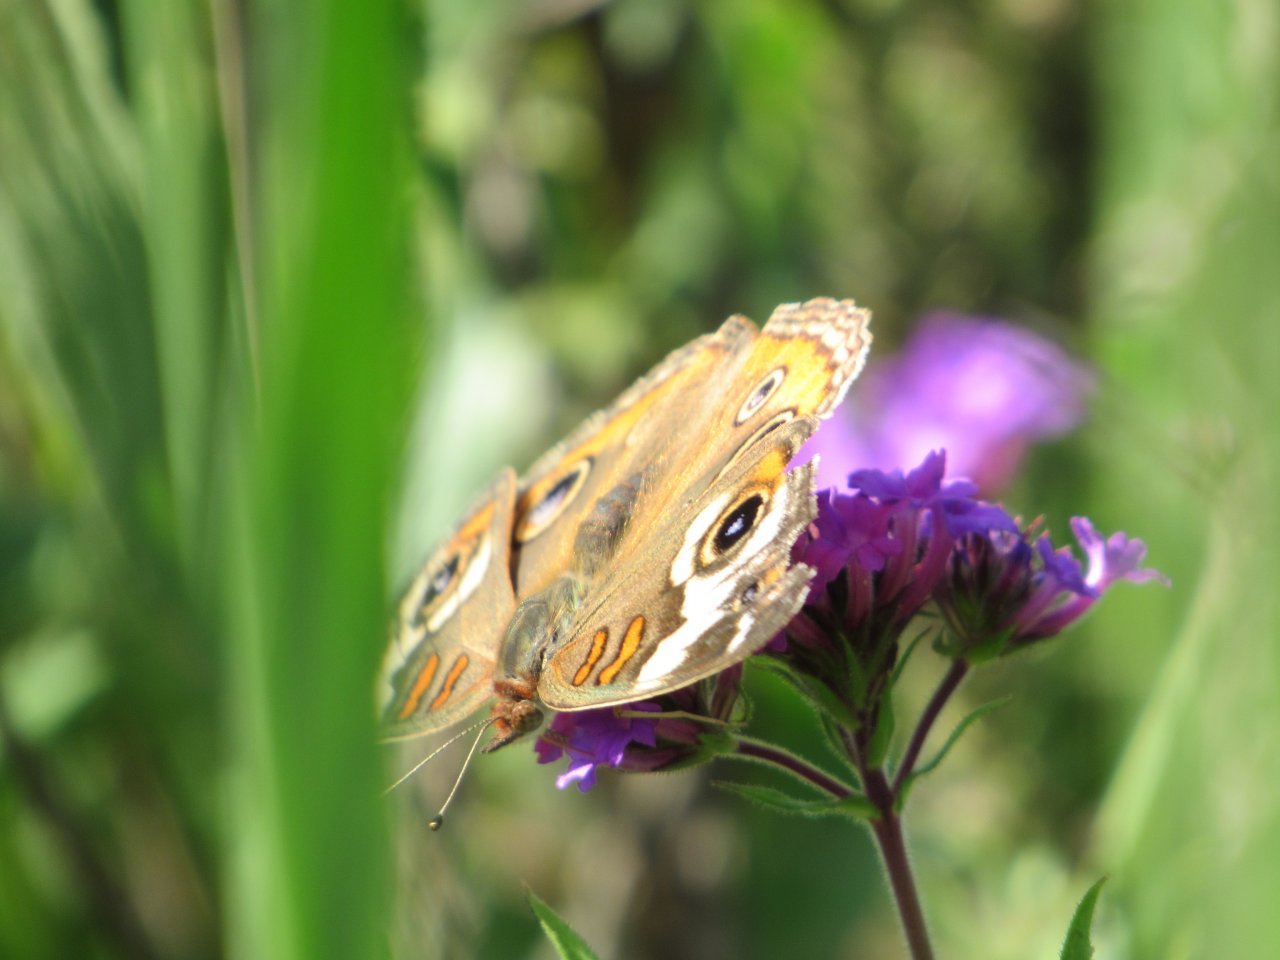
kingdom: Animalia
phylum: Arthropoda
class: Insecta
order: Lepidoptera
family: Nymphalidae
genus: Junonia
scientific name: Junonia coenia
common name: Common Buckeye
